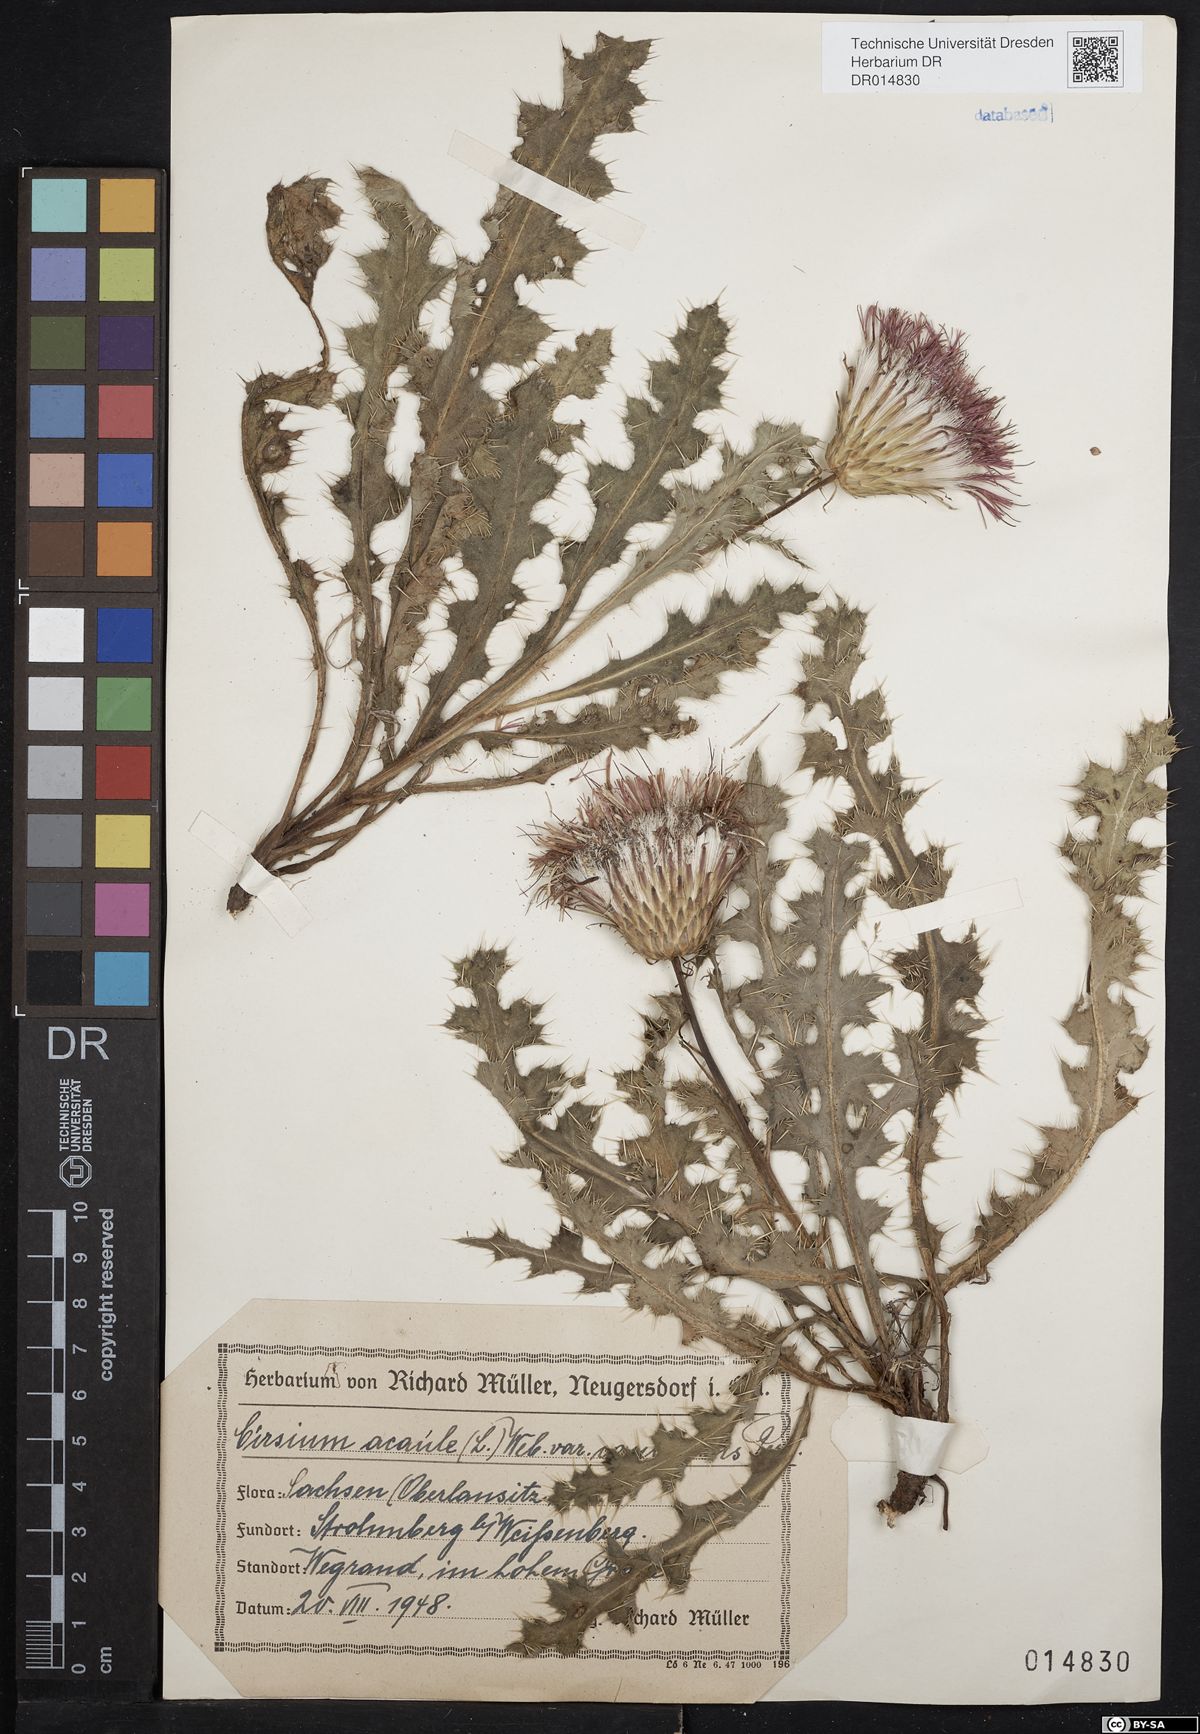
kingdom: Plantae
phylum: Tracheophyta
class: Magnoliopsida
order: Asterales
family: Asteraceae
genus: Cirsium
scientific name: Cirsium acaulon
